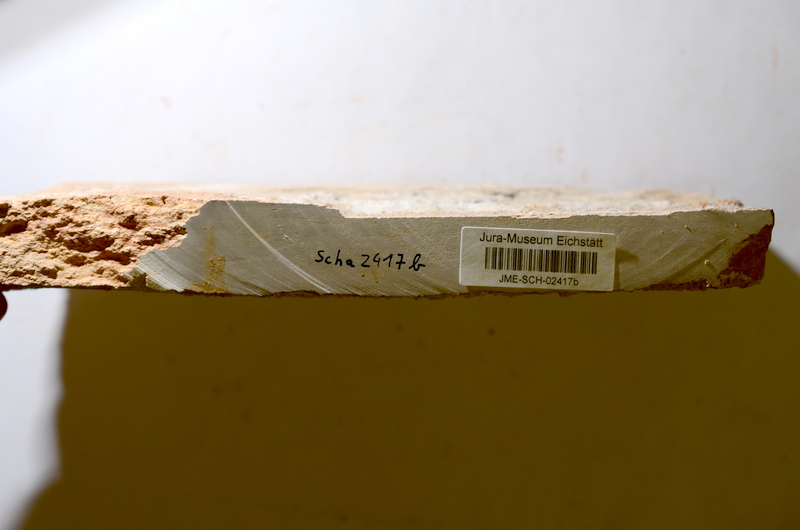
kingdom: Animalia
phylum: Chordata
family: Ankylophoridae
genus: Siemensichthys
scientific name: Siemensichthys siemensi
